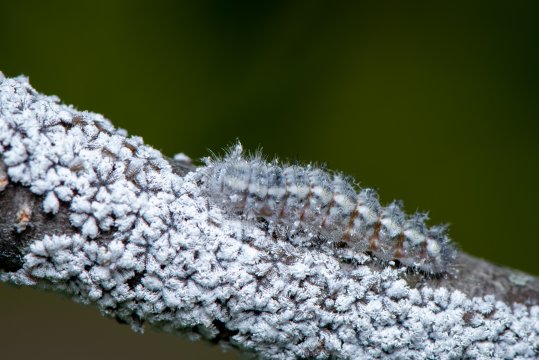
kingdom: Animalia
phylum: Arthropoda
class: Insecta
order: Lepidoptera
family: Lycaenidae
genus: Feniseca
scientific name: Feniseca tarquinius
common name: Harvester
